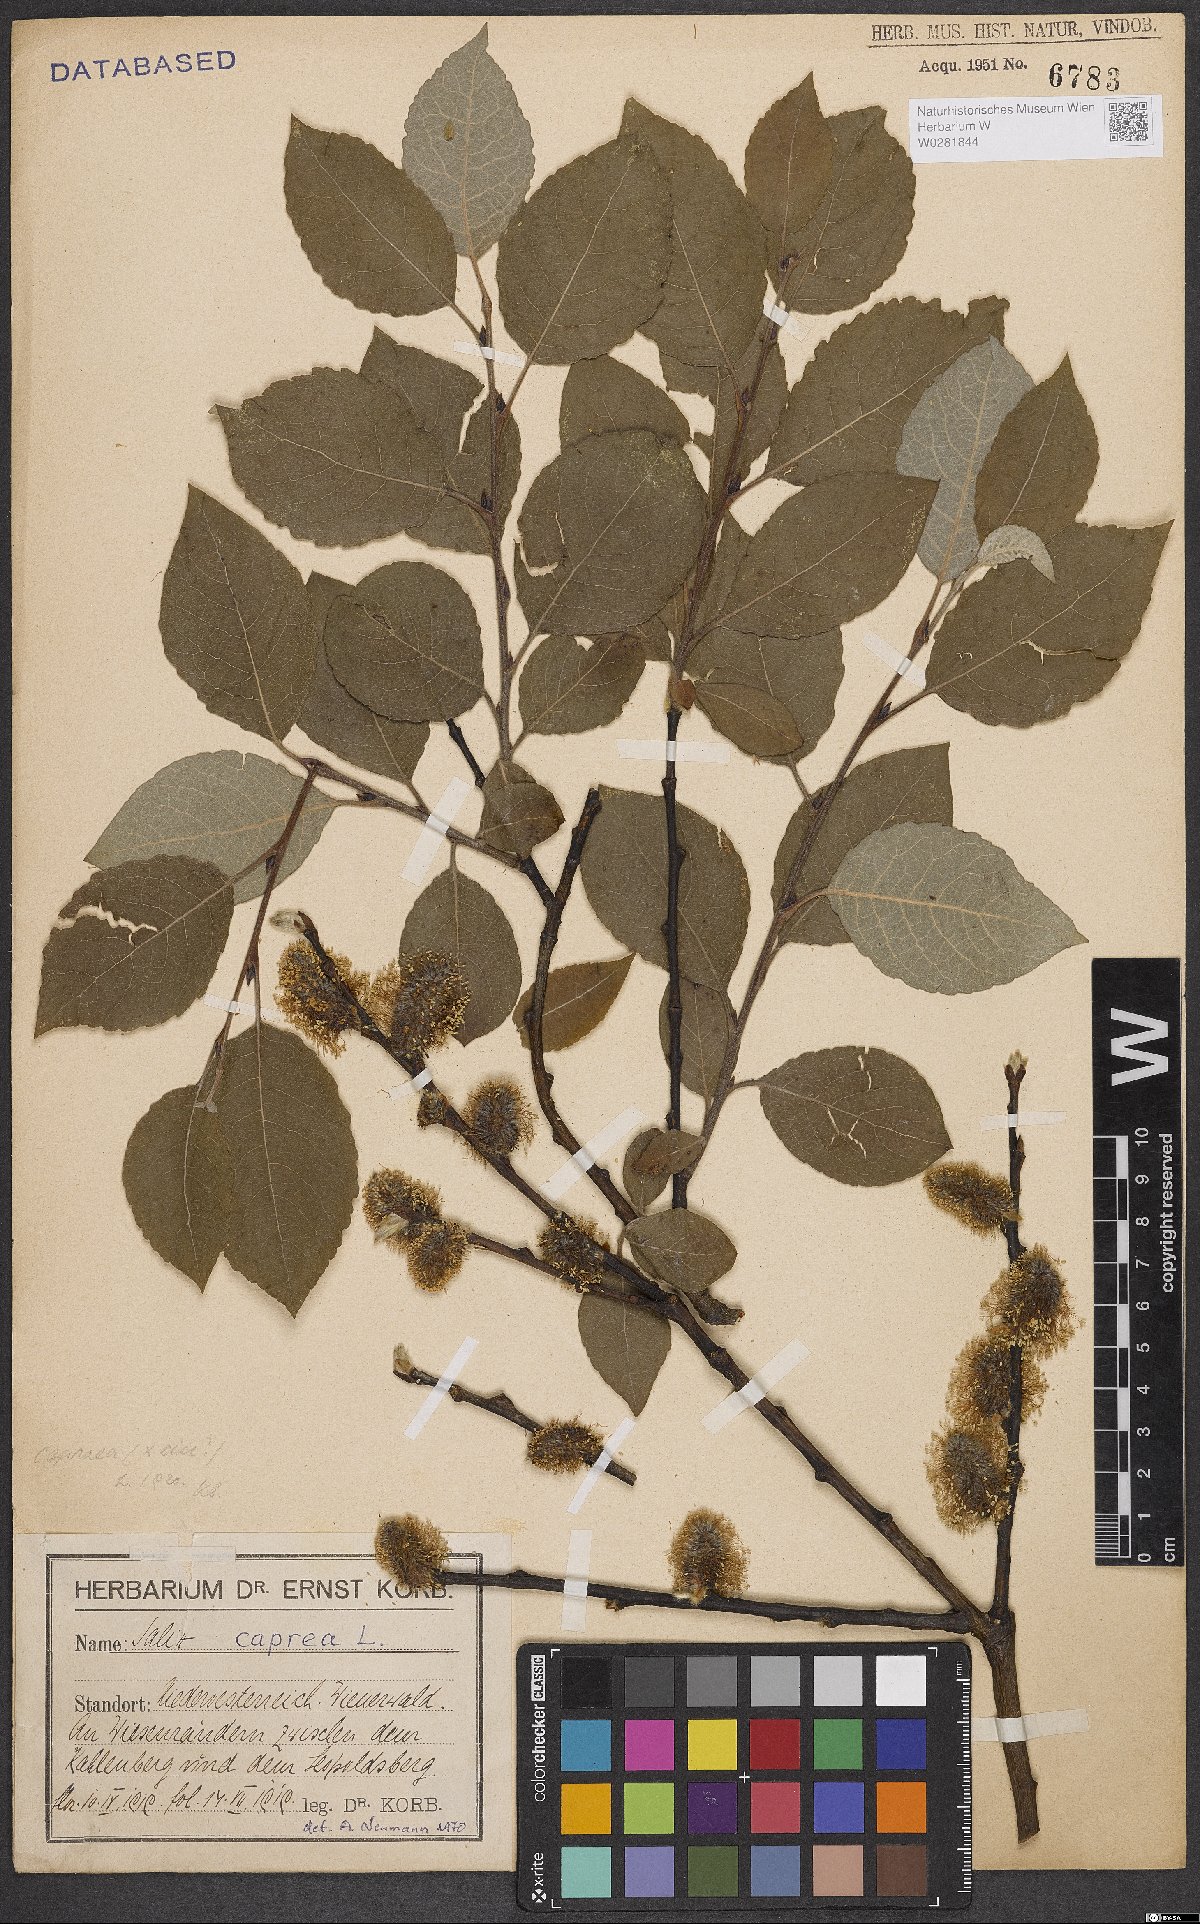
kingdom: Plantae
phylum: Tracheophyta
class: Magnoliopsida
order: Malpighiales
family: Salicaceae
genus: Salix
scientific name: Salix caprea
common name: Goat willow
